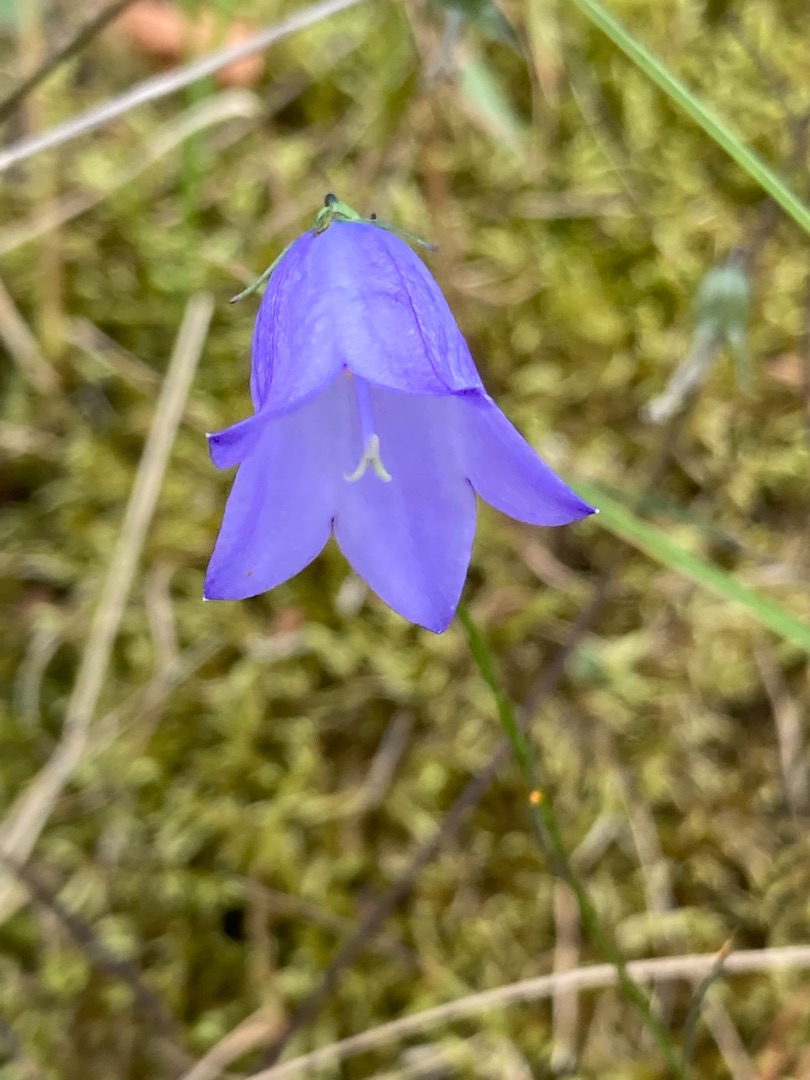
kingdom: Plantae
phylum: Tracheophyta
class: Magnoliopsida
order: Asterales
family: Campanulaceae
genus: Campanula
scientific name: Campanula rotundifolia
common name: Liden klokke
